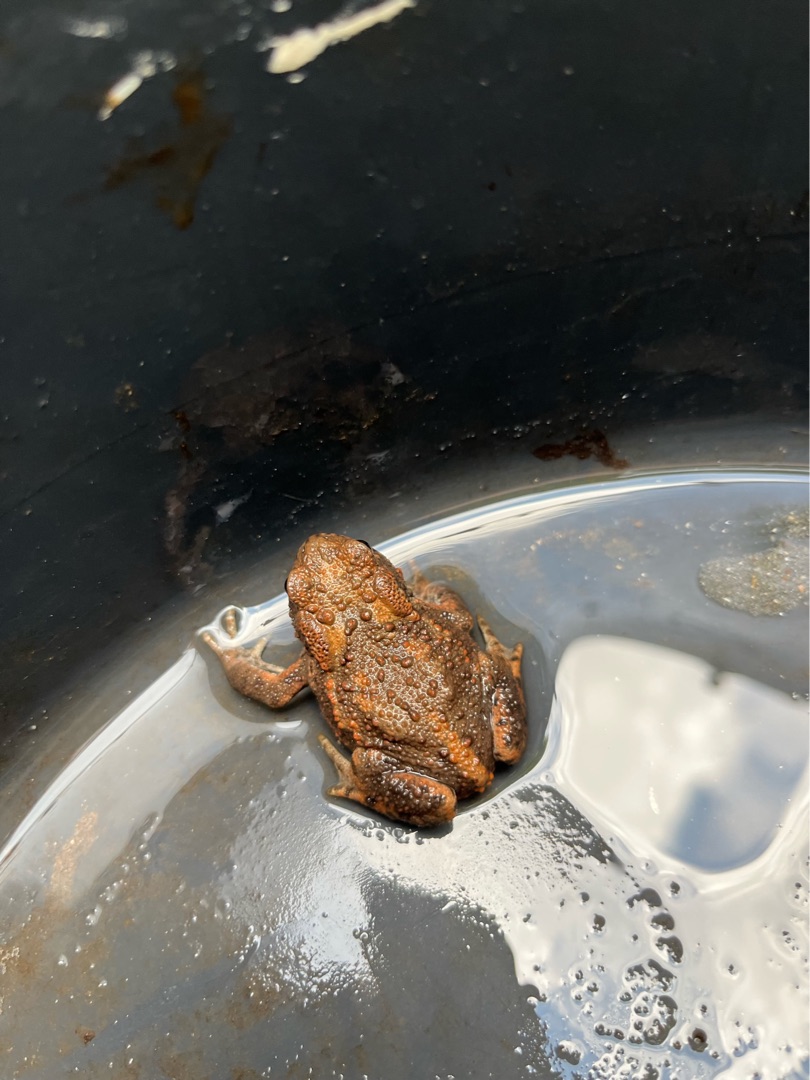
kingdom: Animalia
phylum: Chordata
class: Amphibia
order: Anura
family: Bufonidae
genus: Bufo
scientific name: Bufo bufo
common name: Skrubtudse
